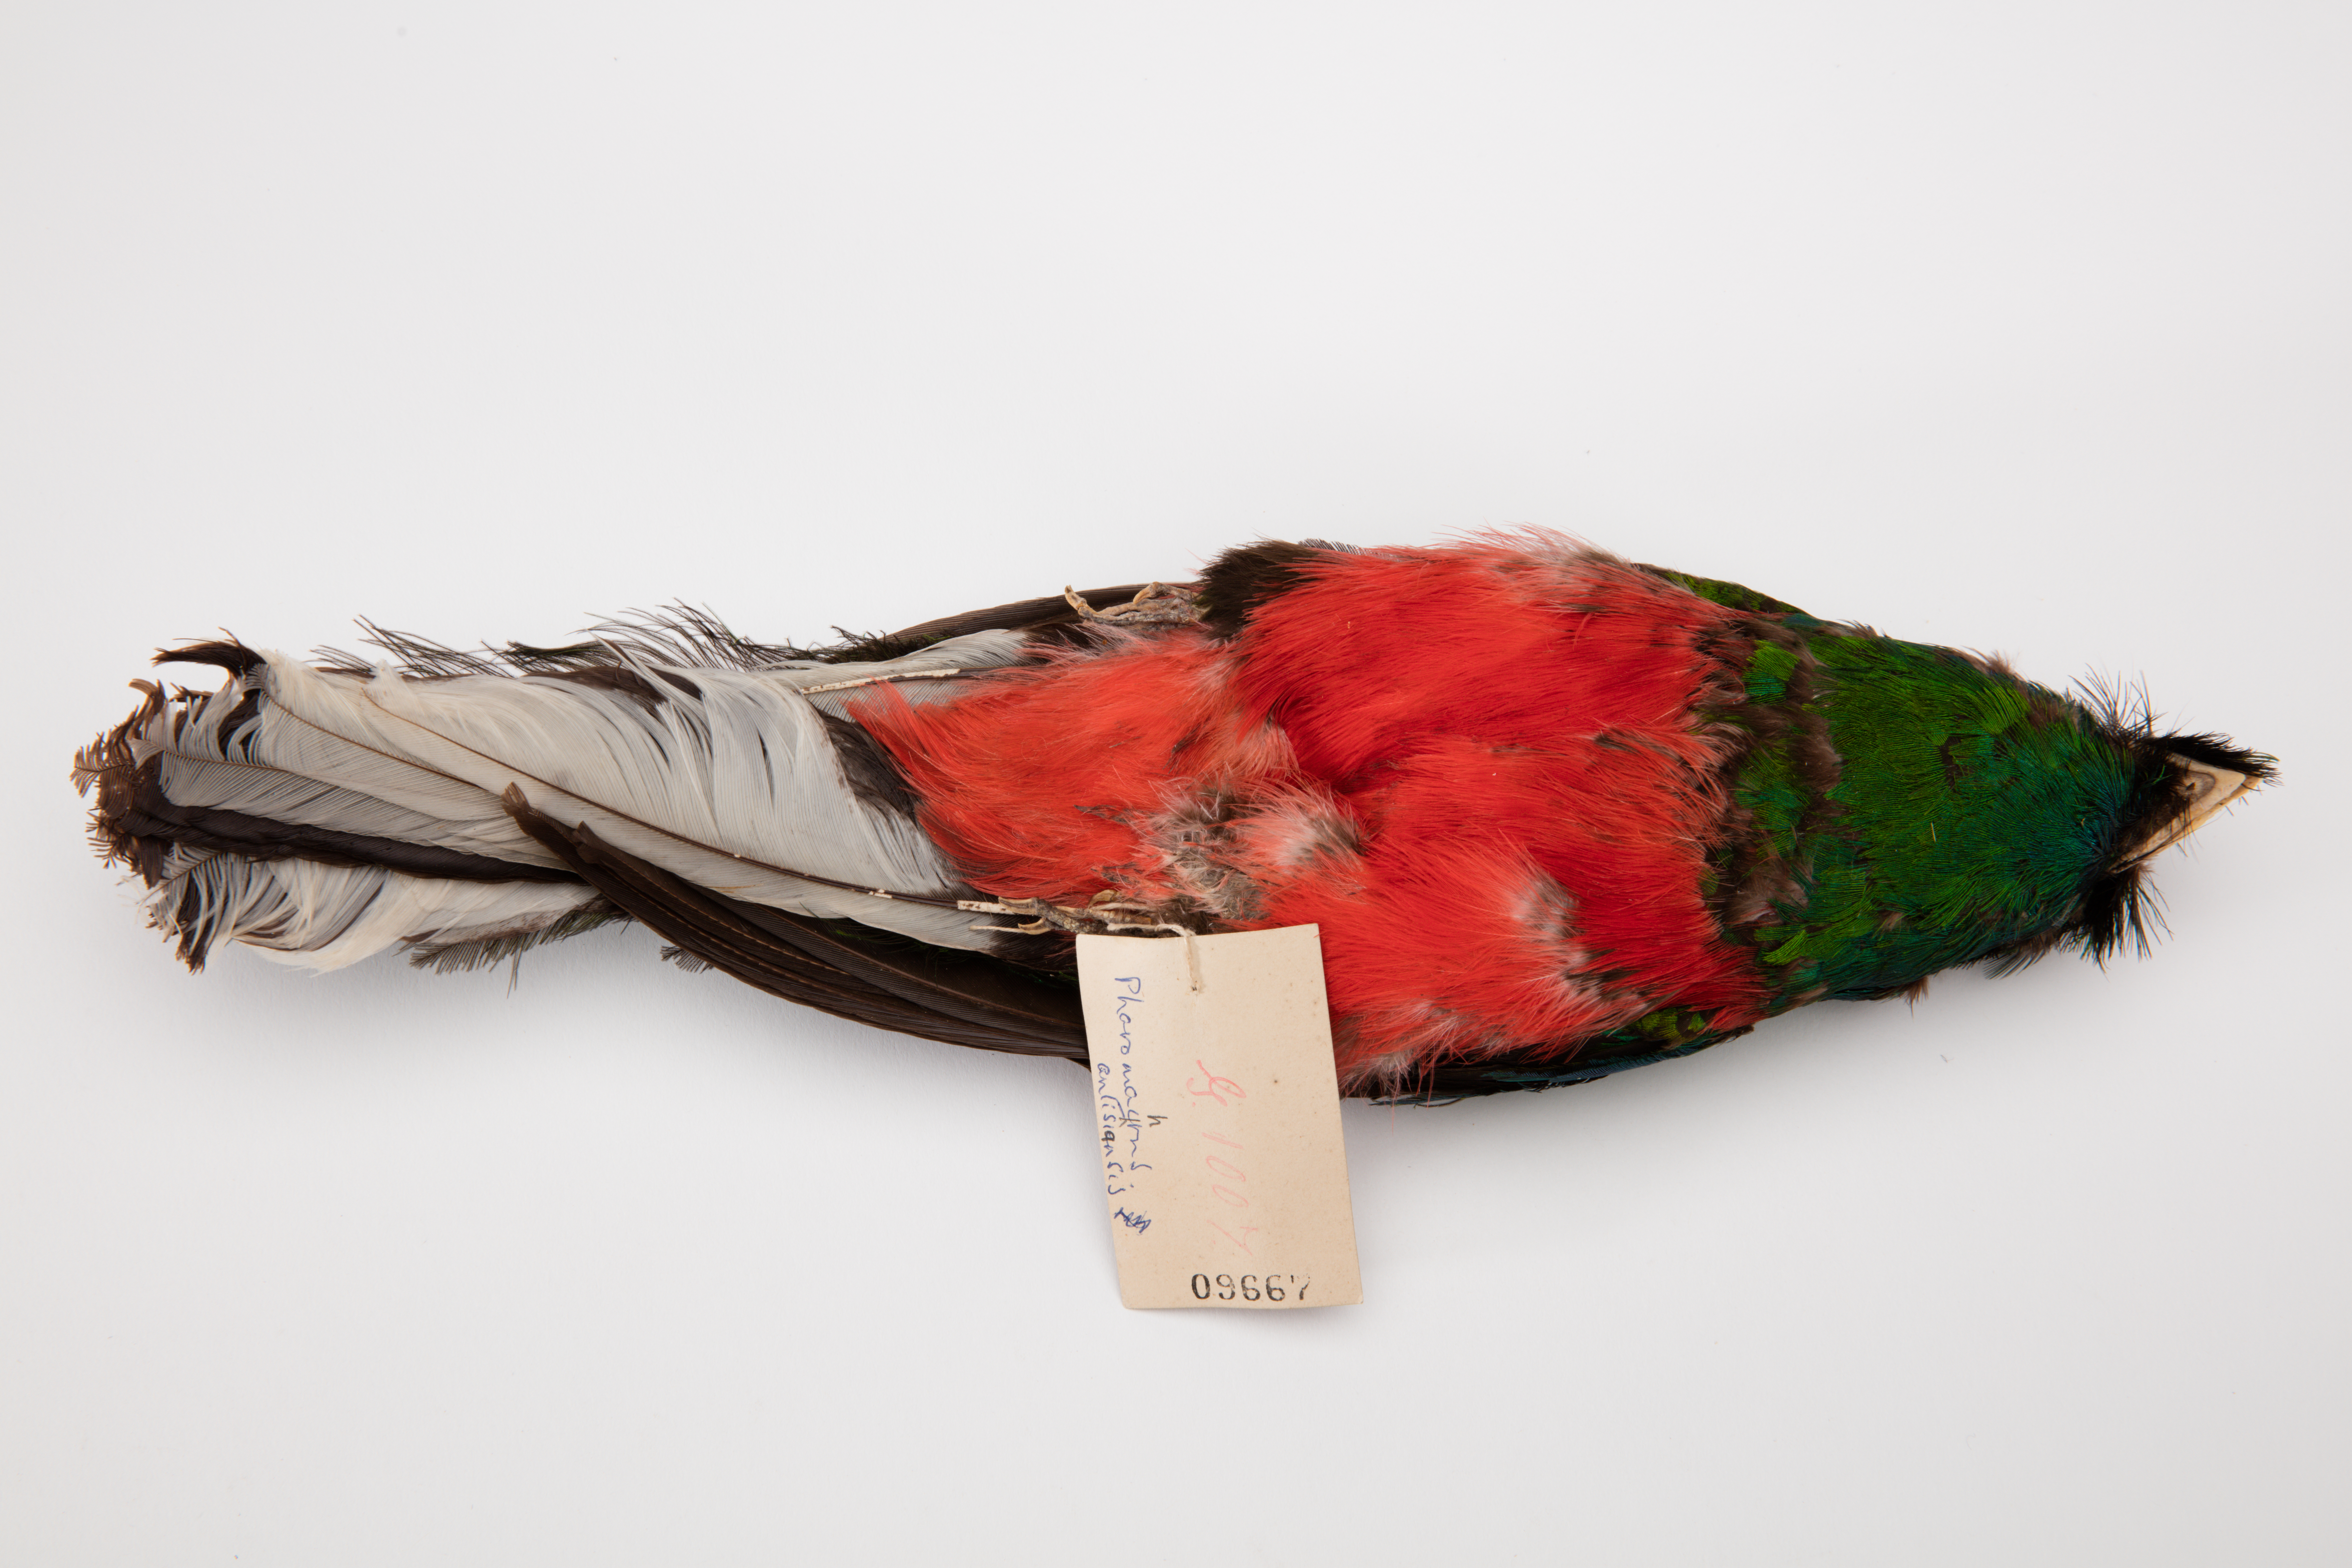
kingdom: Animalia
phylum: Chordata
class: Aves
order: Trogoniformes
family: Trogonidae
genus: Pharomachrus
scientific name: Pharomachrus antisianus
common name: Crested quetzal
